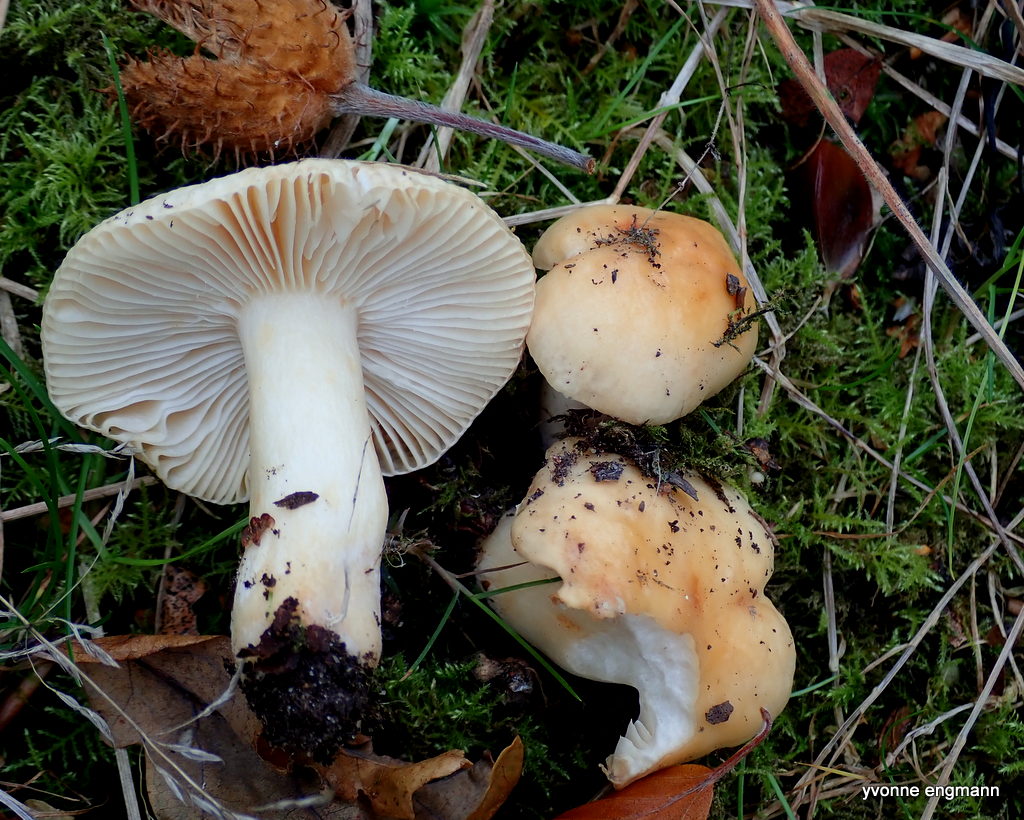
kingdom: Fungi
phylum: Basidiomycota
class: Agaricomycetes
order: Russulales
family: Russulaceae
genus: Russula
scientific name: Russula fellea
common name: galde-skørhat
